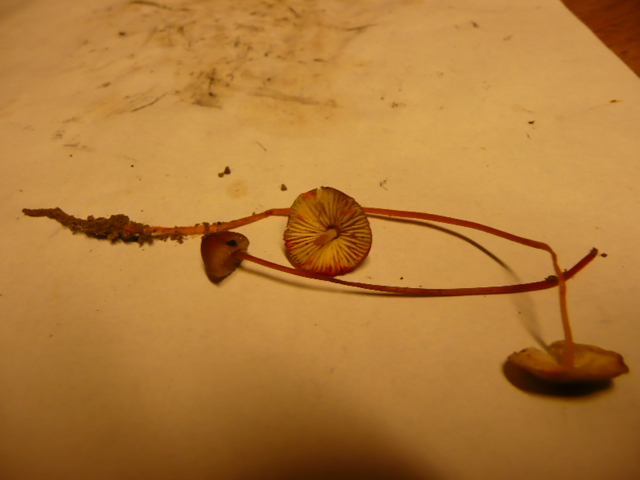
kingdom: Fungi
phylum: Basidiomycota
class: Agaricomycetes
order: Agaricales
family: Mycenaceae
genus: Mycena
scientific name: Mycena crocata
